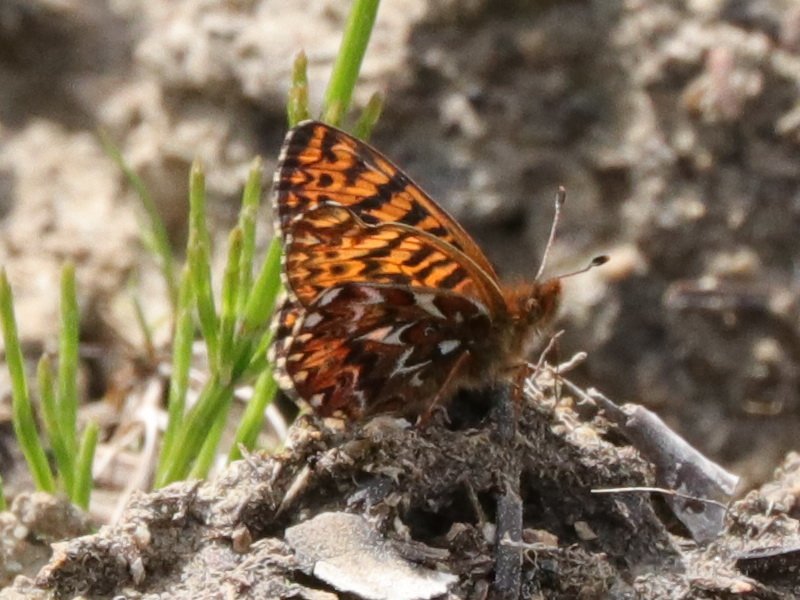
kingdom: Animalia
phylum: Arthropoda
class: Insecta
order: Lepidoptera
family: Nymphalidae
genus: Boloria
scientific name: Boloria freija
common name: Freija Fritillary
